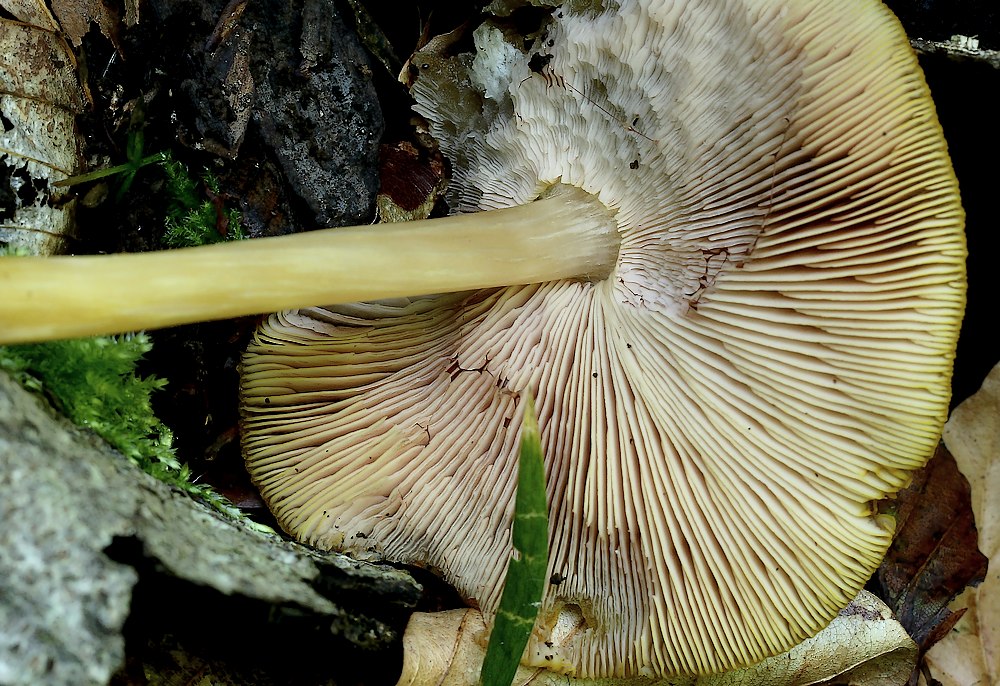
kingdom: Fungi
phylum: Basidiomycota
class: Agaricomycetes
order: Agaricales
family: Pluteaceae
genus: Pluteus
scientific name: Pluteus leoninus
